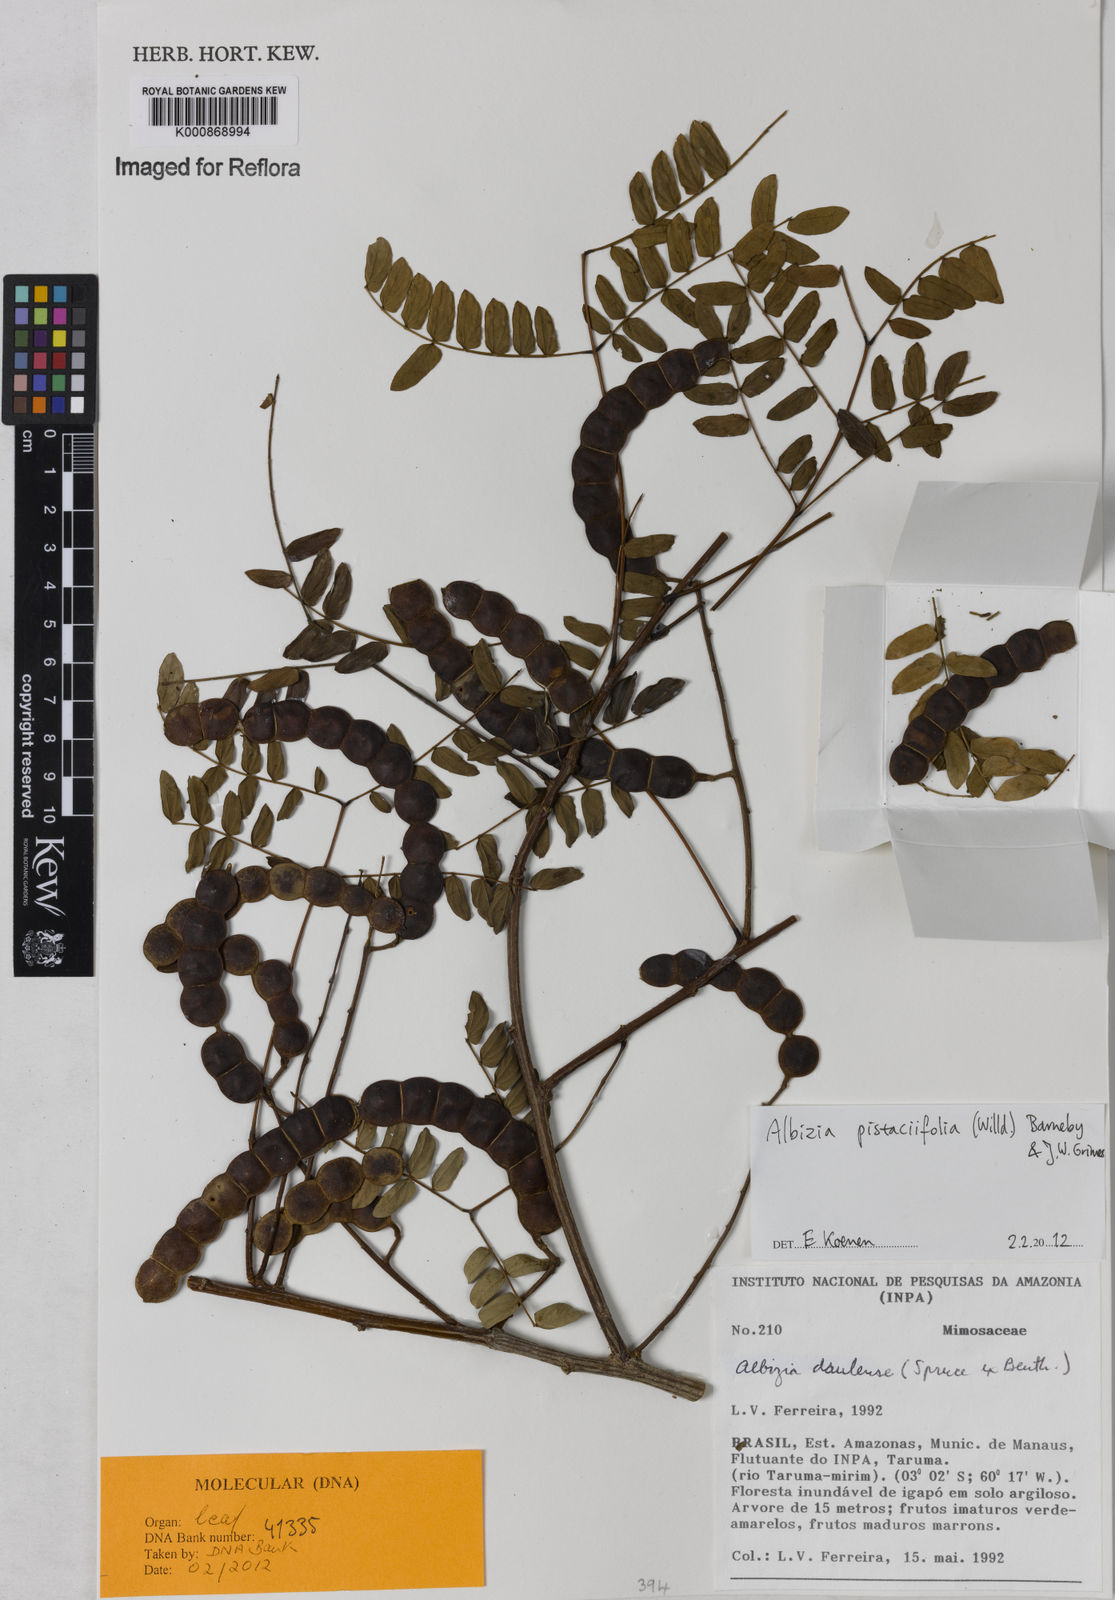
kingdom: Plantae
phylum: Tracheophyta
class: Magnoliopsida
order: Fabales
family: Fabaceae
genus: Albizia
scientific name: Albizia pistaciifolia
